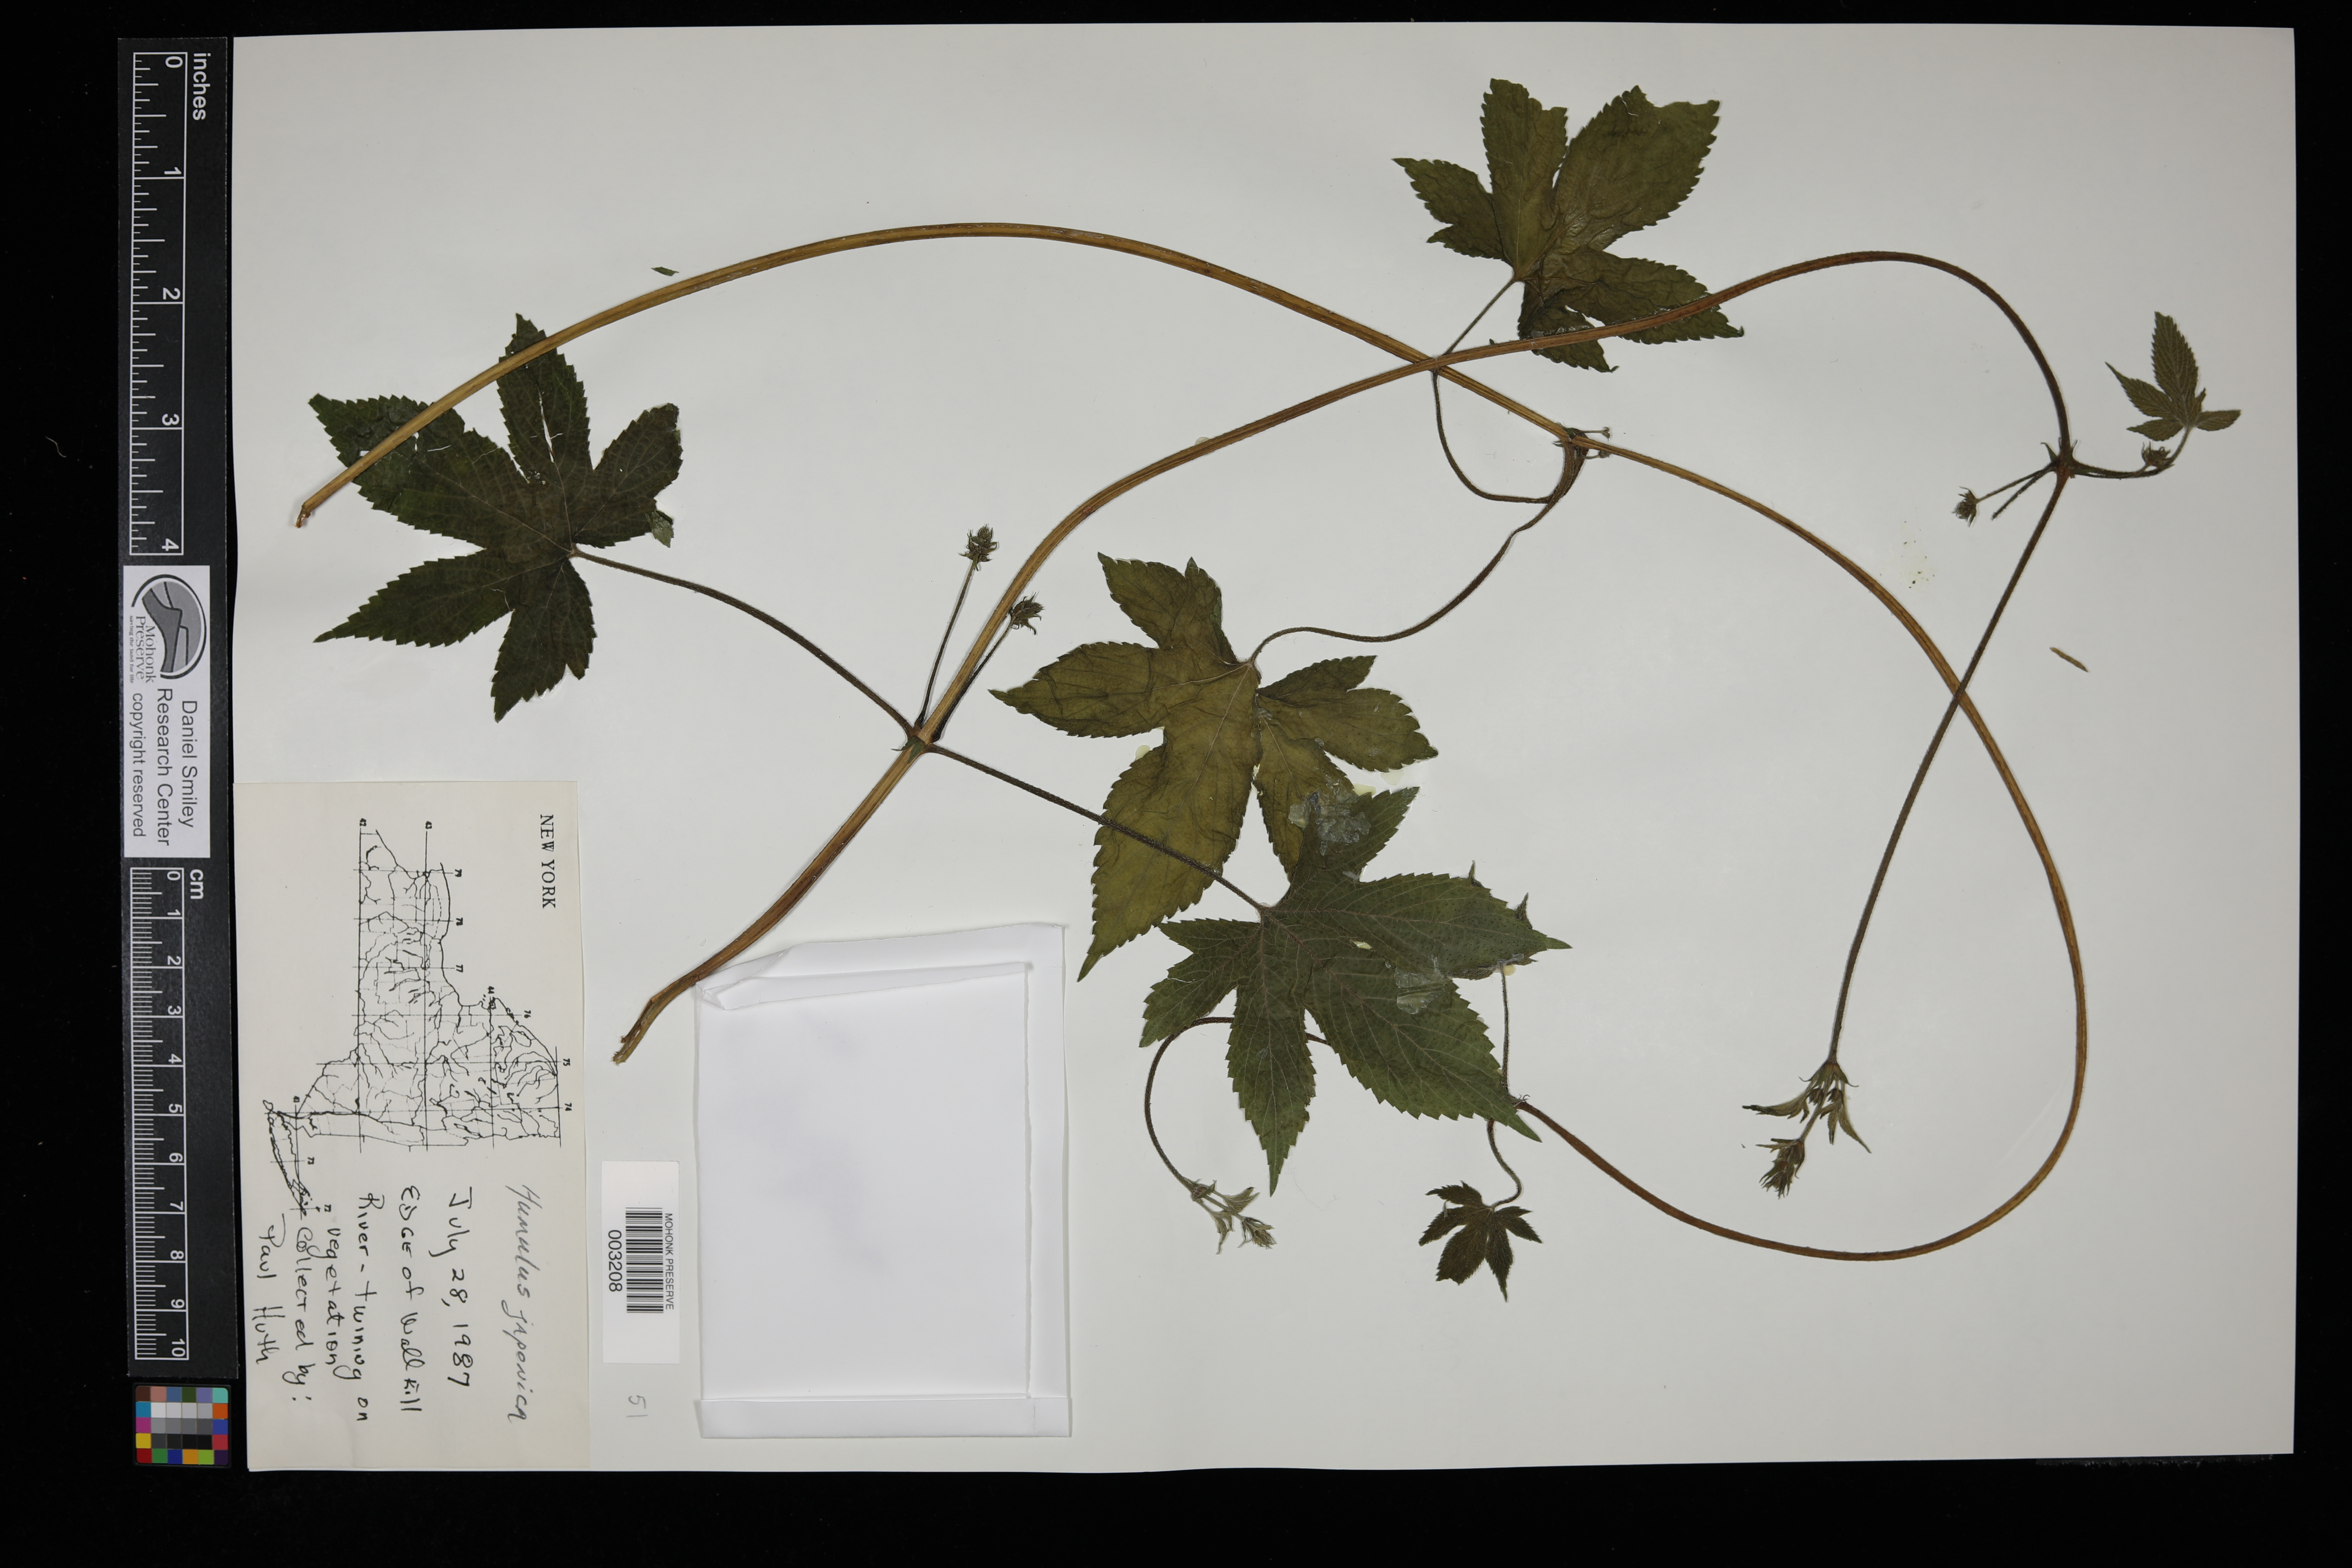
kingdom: Plantae
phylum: Tracheophyta
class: Magnoliopsida
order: Rosales
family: Cannabaceae
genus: Humulus
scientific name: Humulus scandens
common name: Japanese hop
